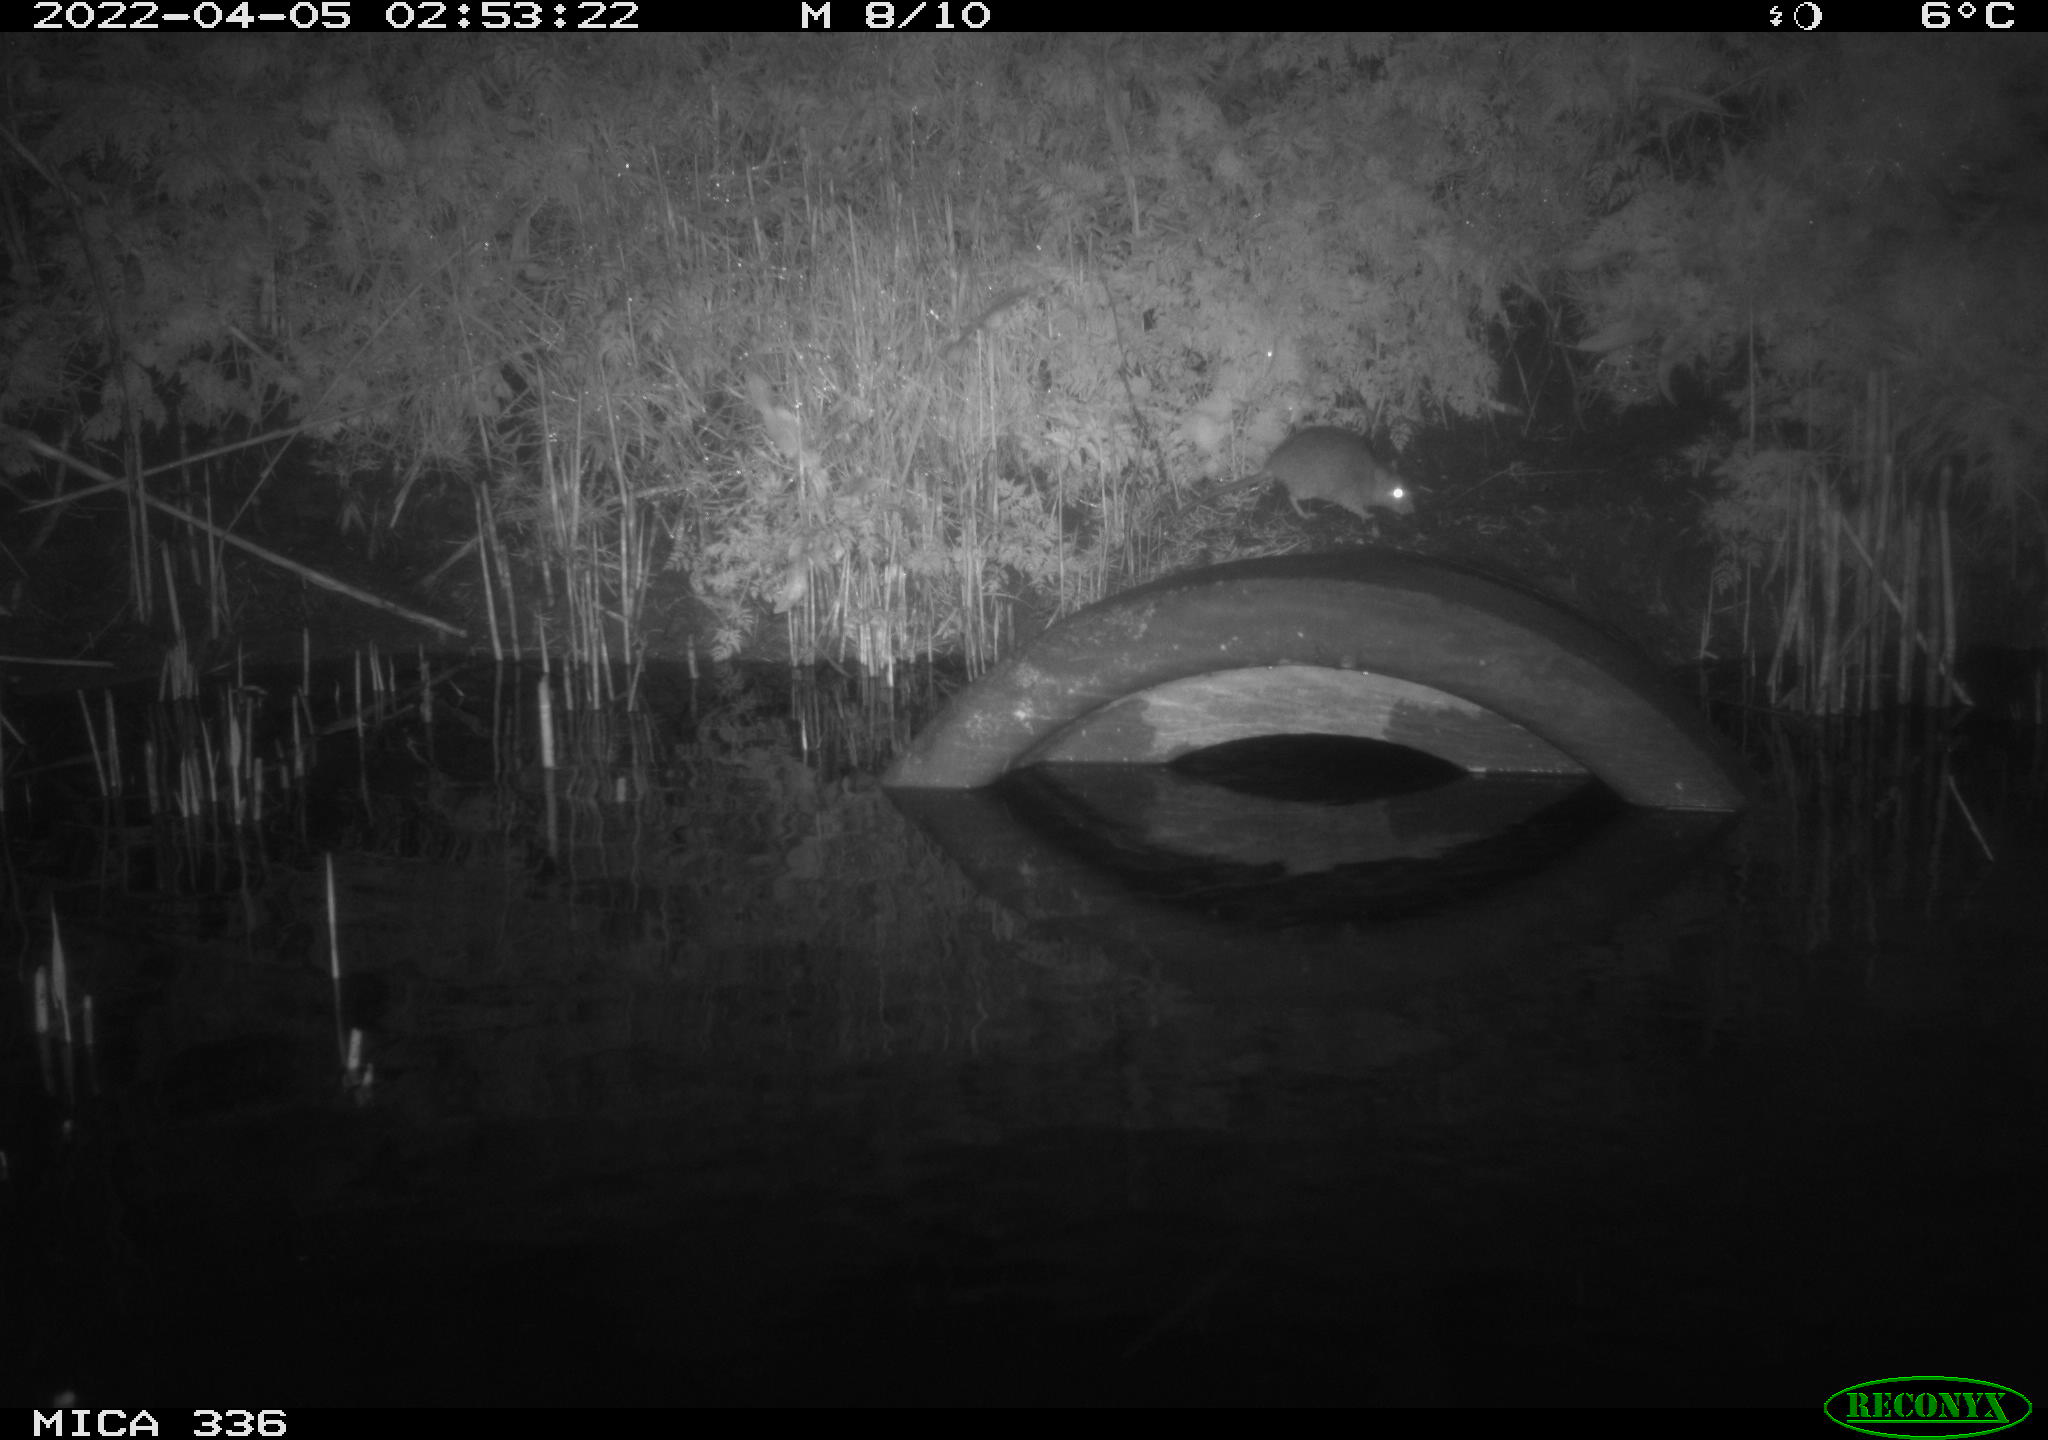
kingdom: Animalia
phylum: Chordata
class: Mammalia
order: Rodentia
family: Muridae
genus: Rattus
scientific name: Rattus norvegicus
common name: Brown rat
